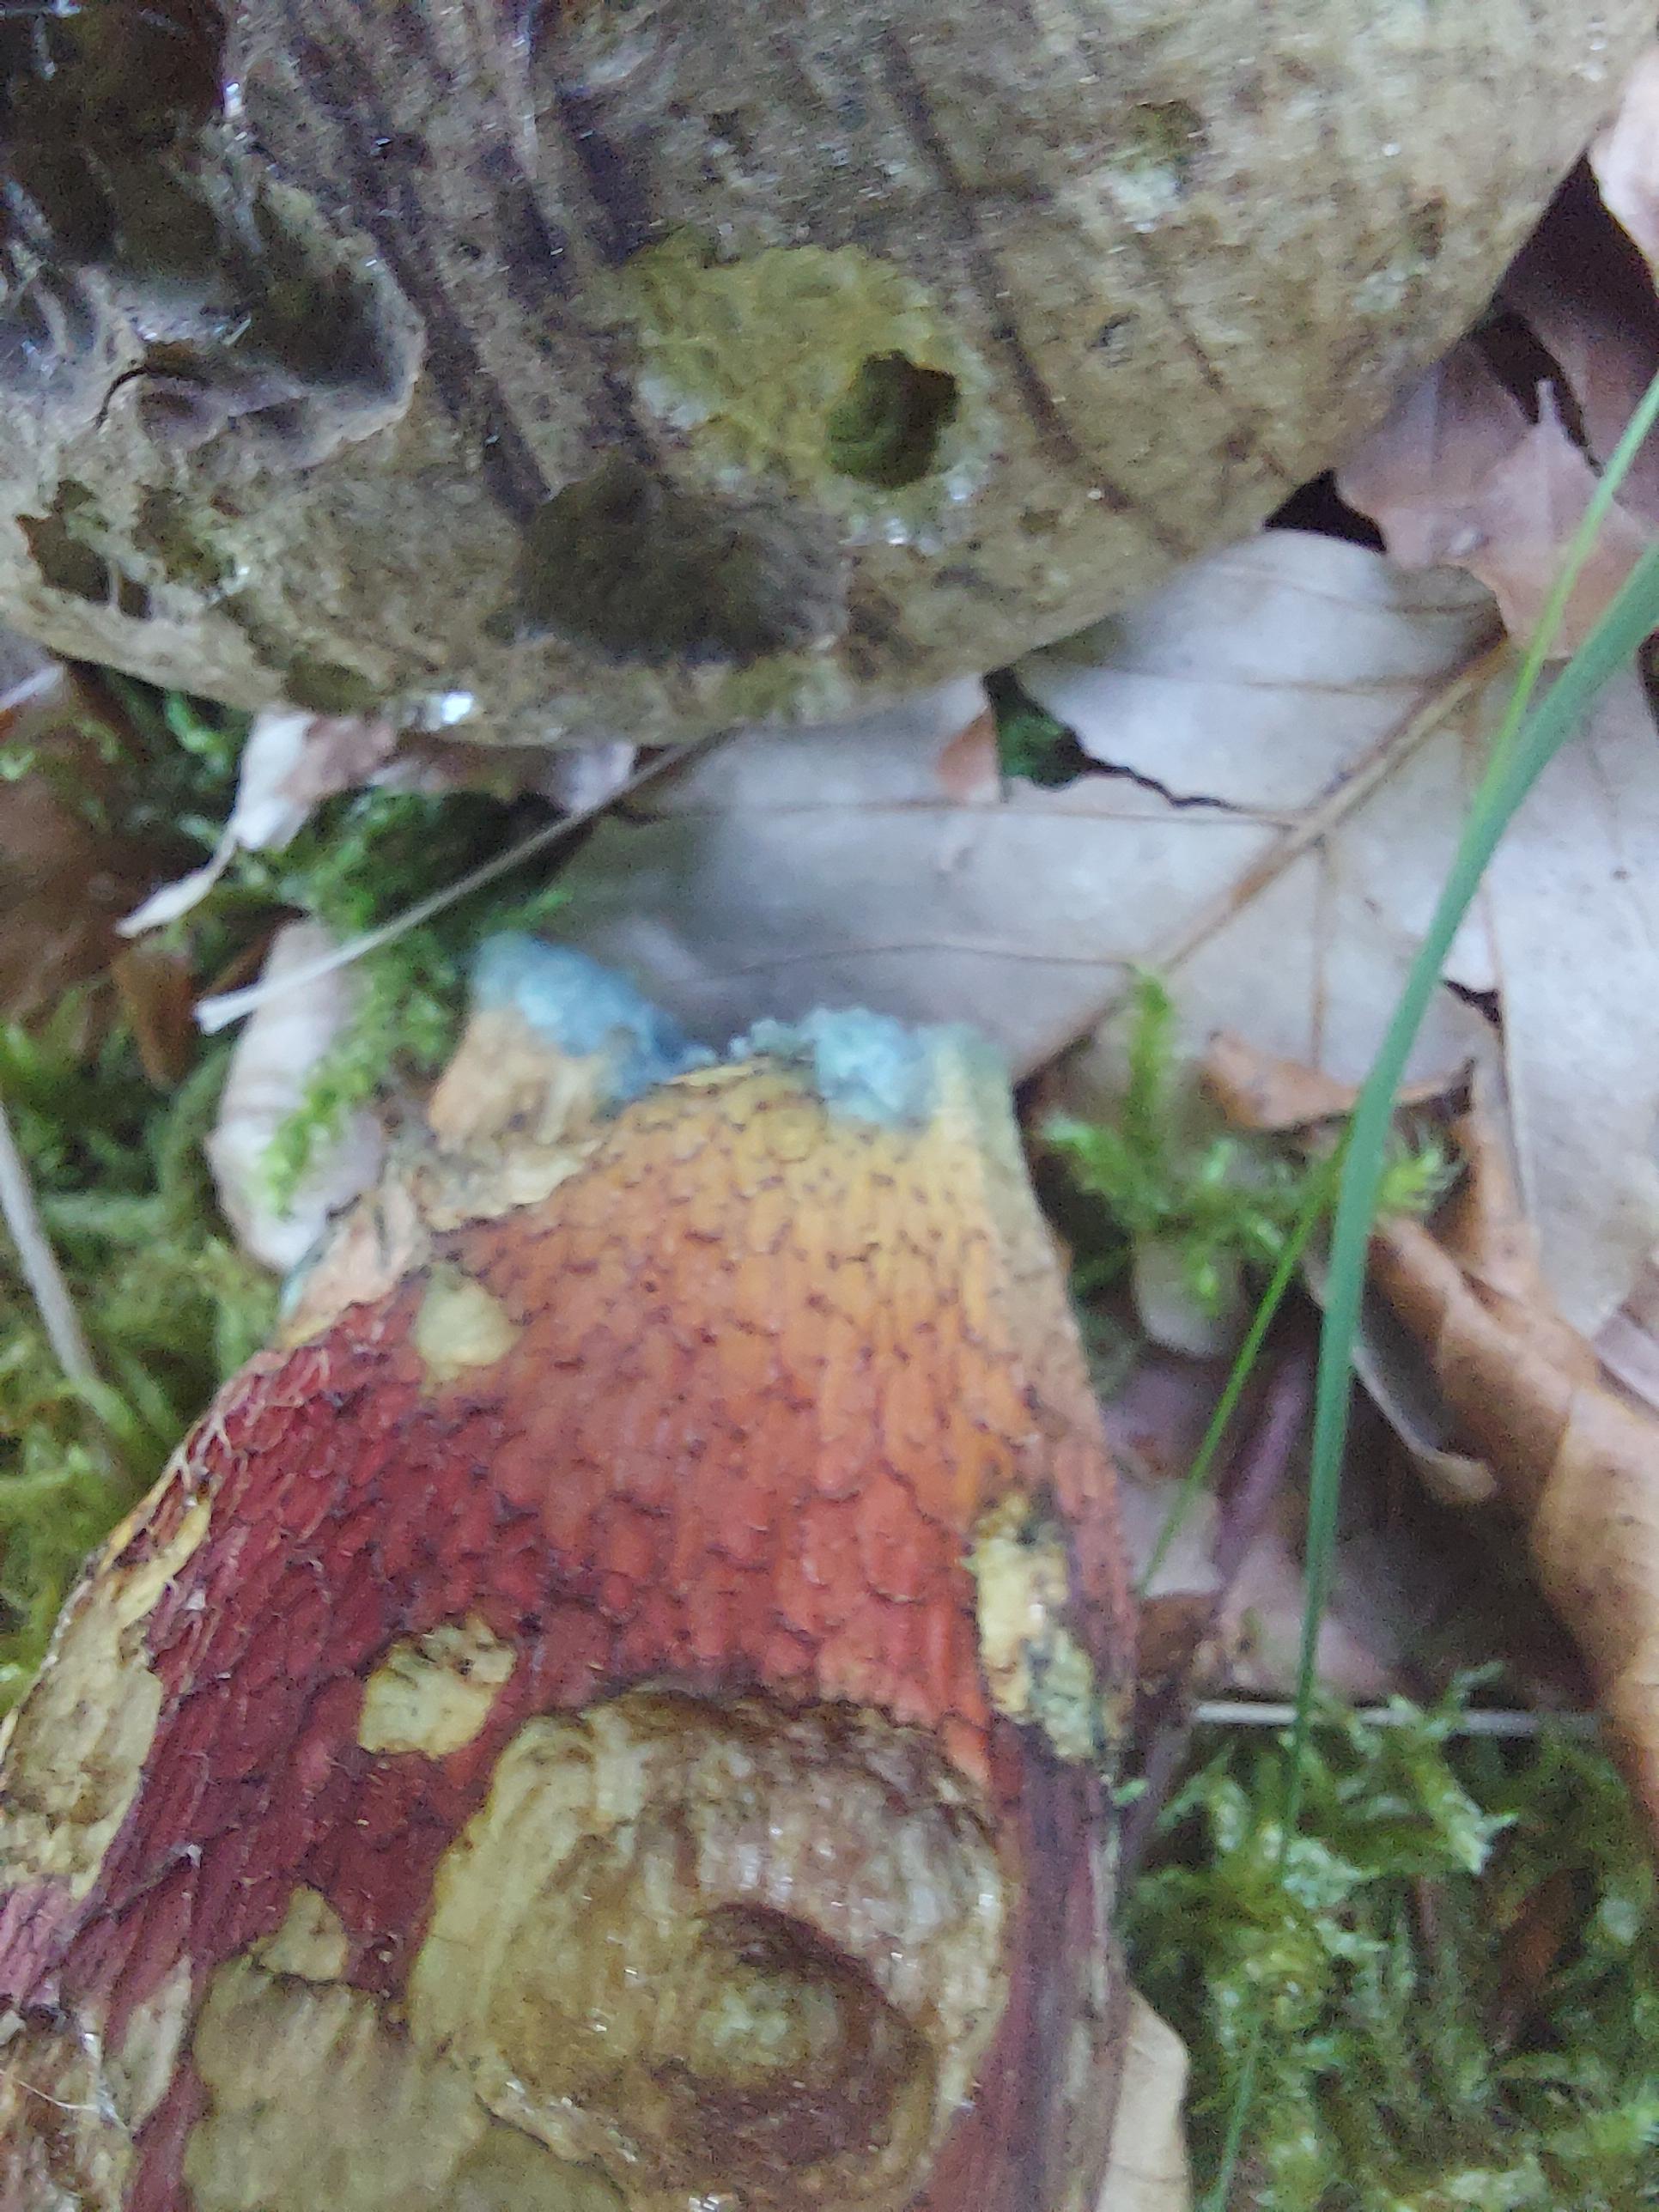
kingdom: Fungi
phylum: Basidiomycota
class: Agaricomycetes
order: Boletales
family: Boletaceae
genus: Caloboletus
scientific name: Caloboletus calopus
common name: skønfodet rørhat
